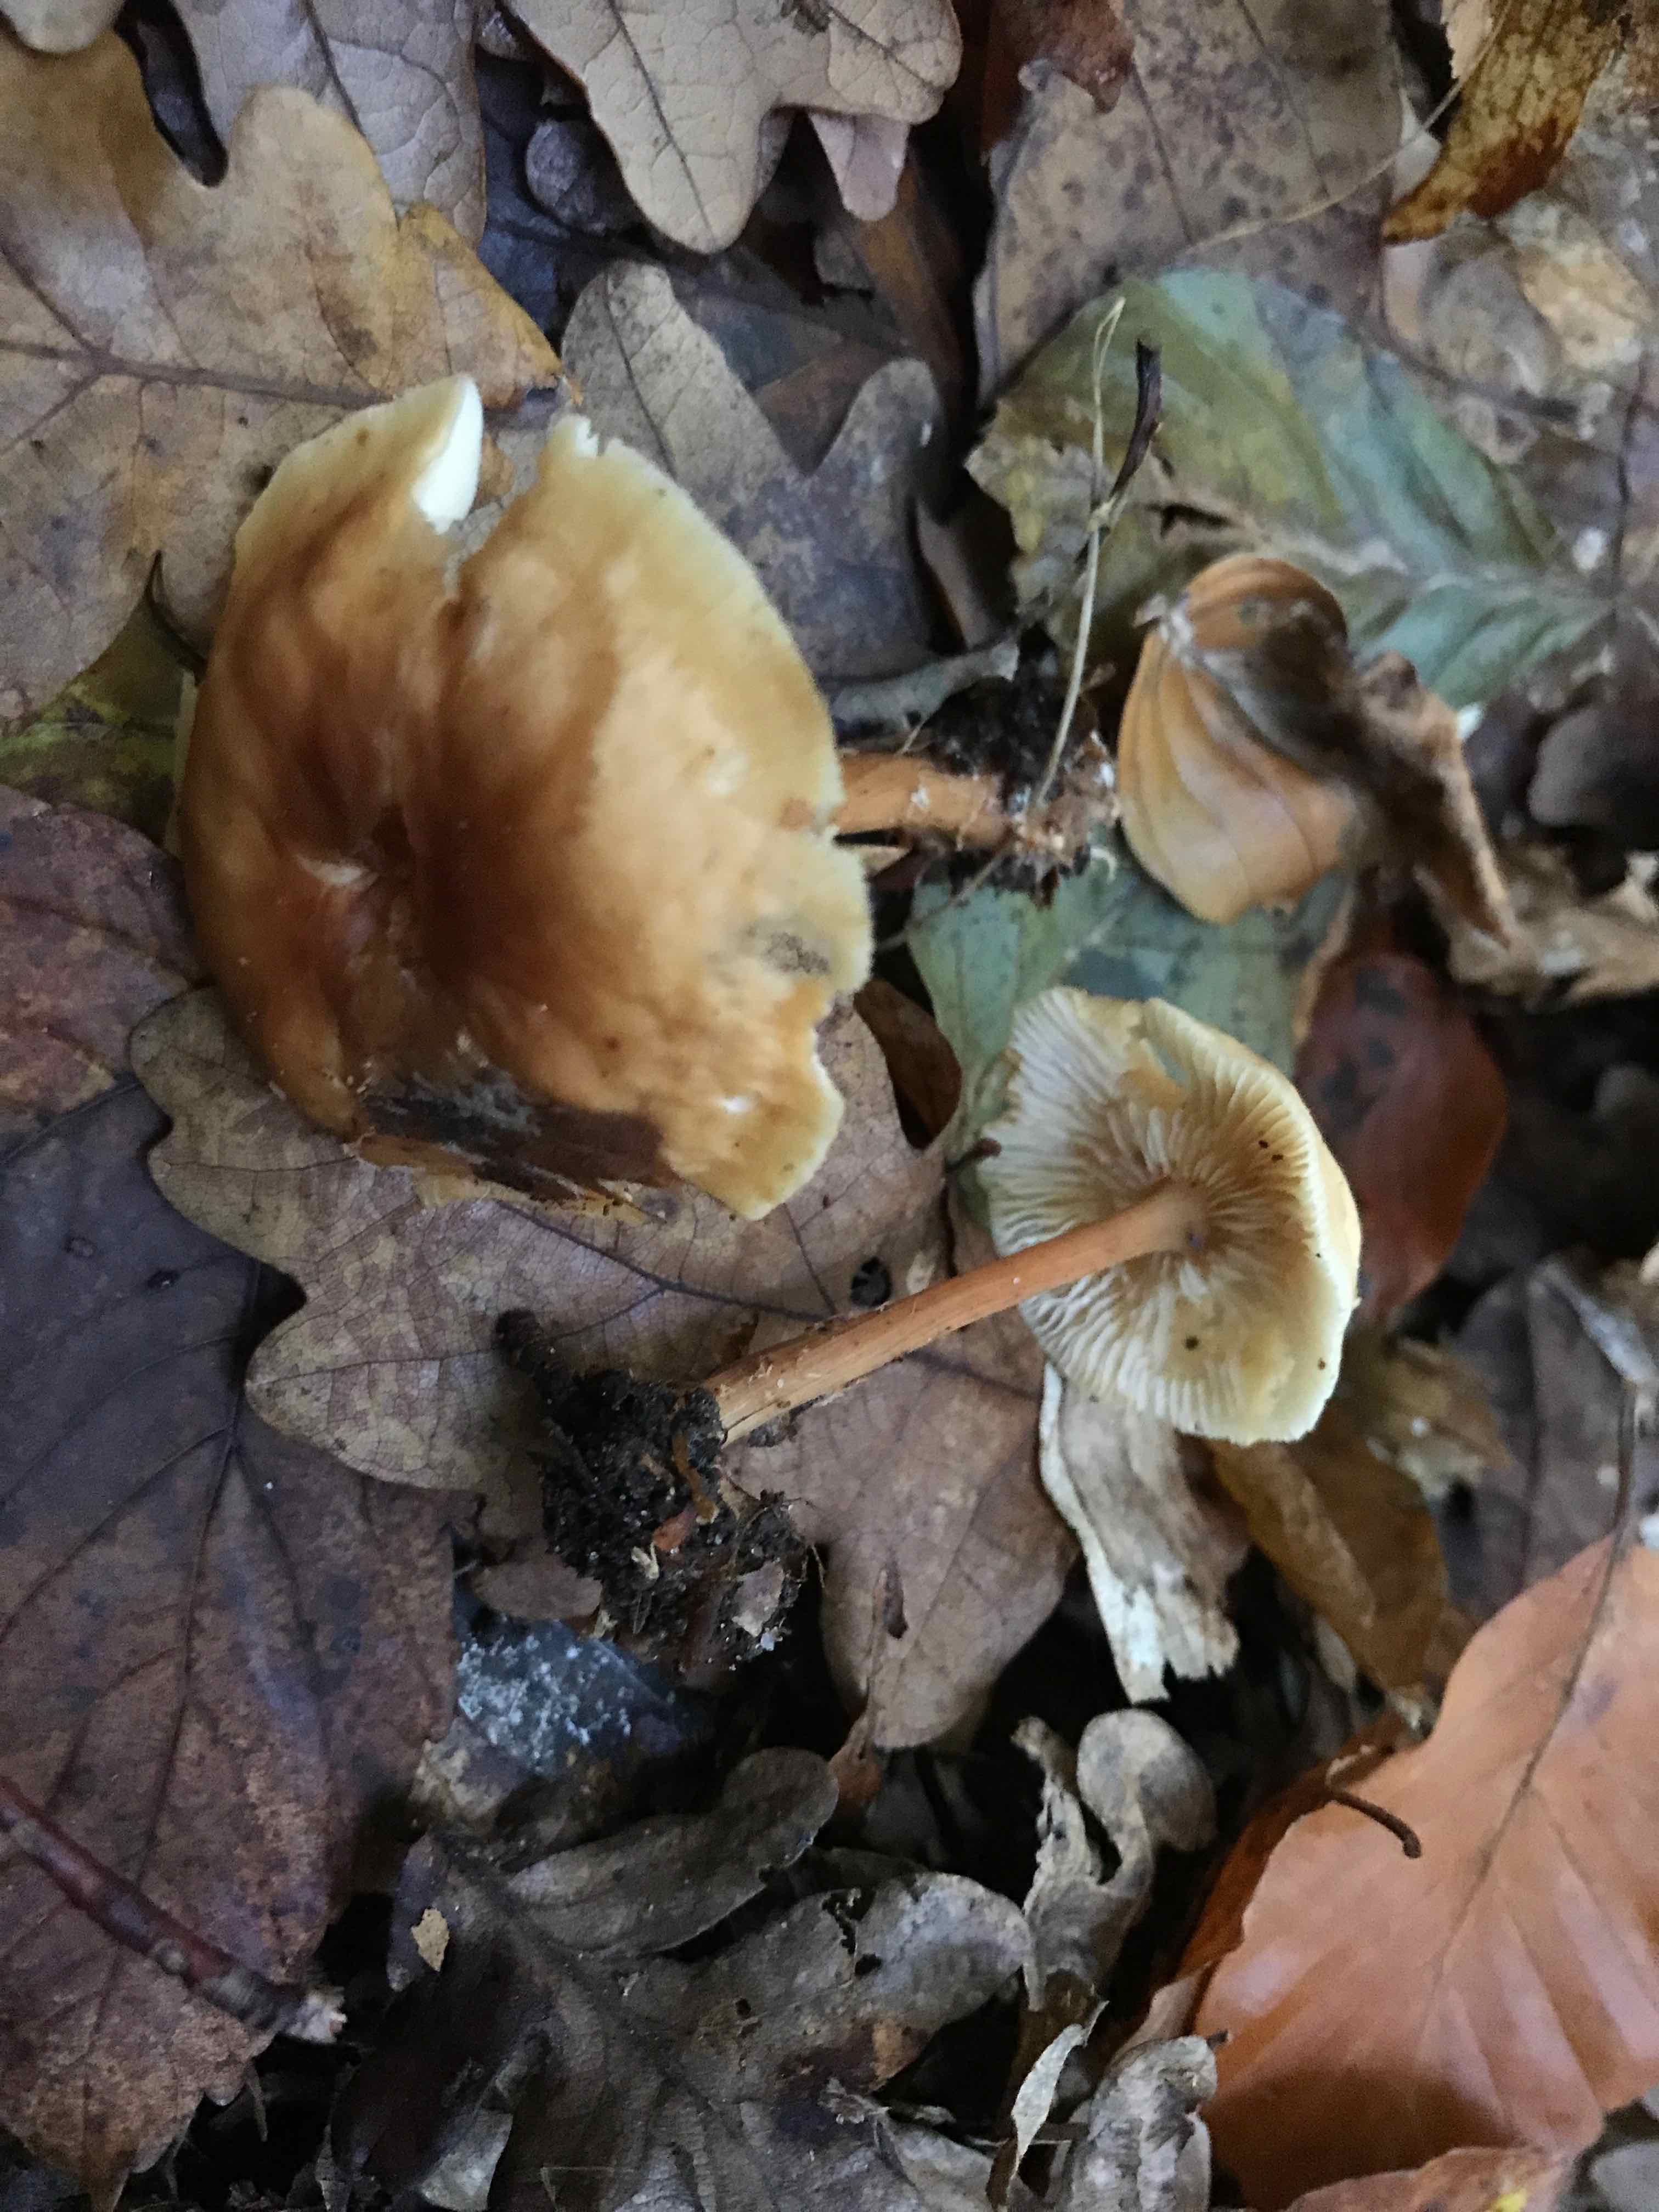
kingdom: Fungi
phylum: Basidiomycota
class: Agaricomycetes
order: Agaricales
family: Omphalotaceae
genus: Gymnopus
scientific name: Gymnopus dryophilus
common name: løv-fladhat
